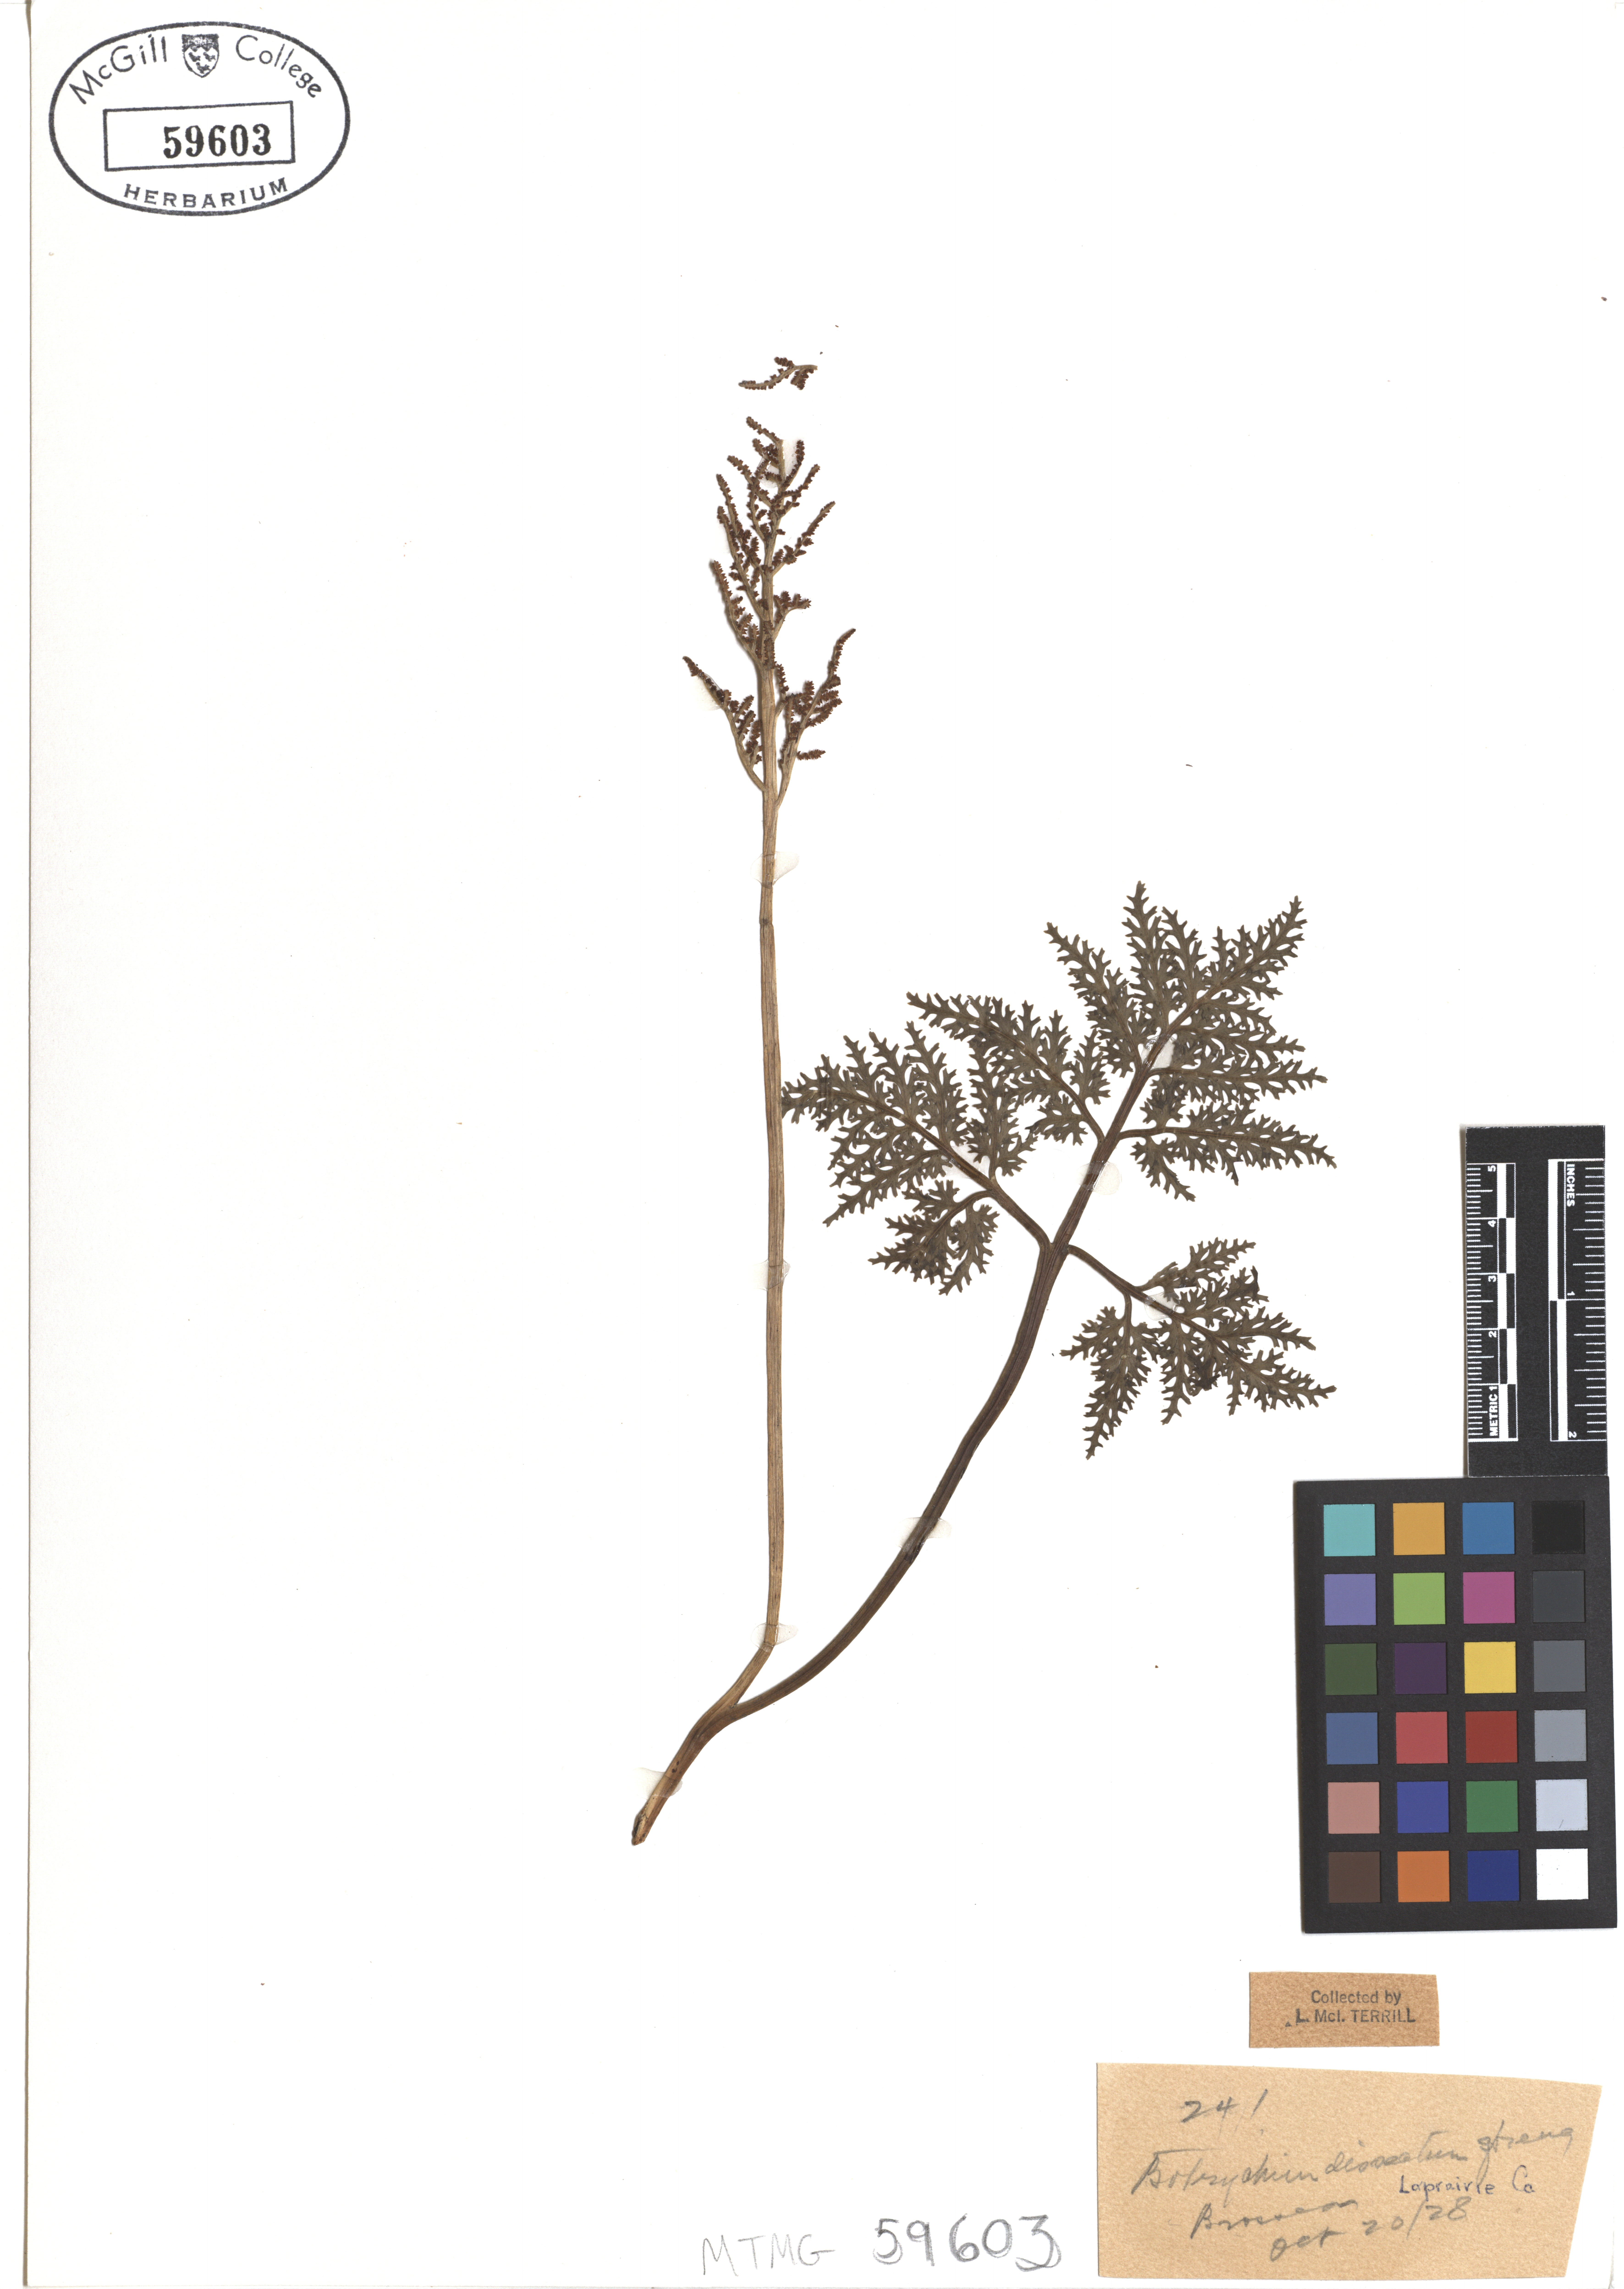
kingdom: Plantae
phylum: Tracheophyta
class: Polypodiopsida
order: Ophioglossales
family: Ophioglossaceae
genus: Sceptridium
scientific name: Sceptridium dissectum
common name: Cut-leaved grapefern
